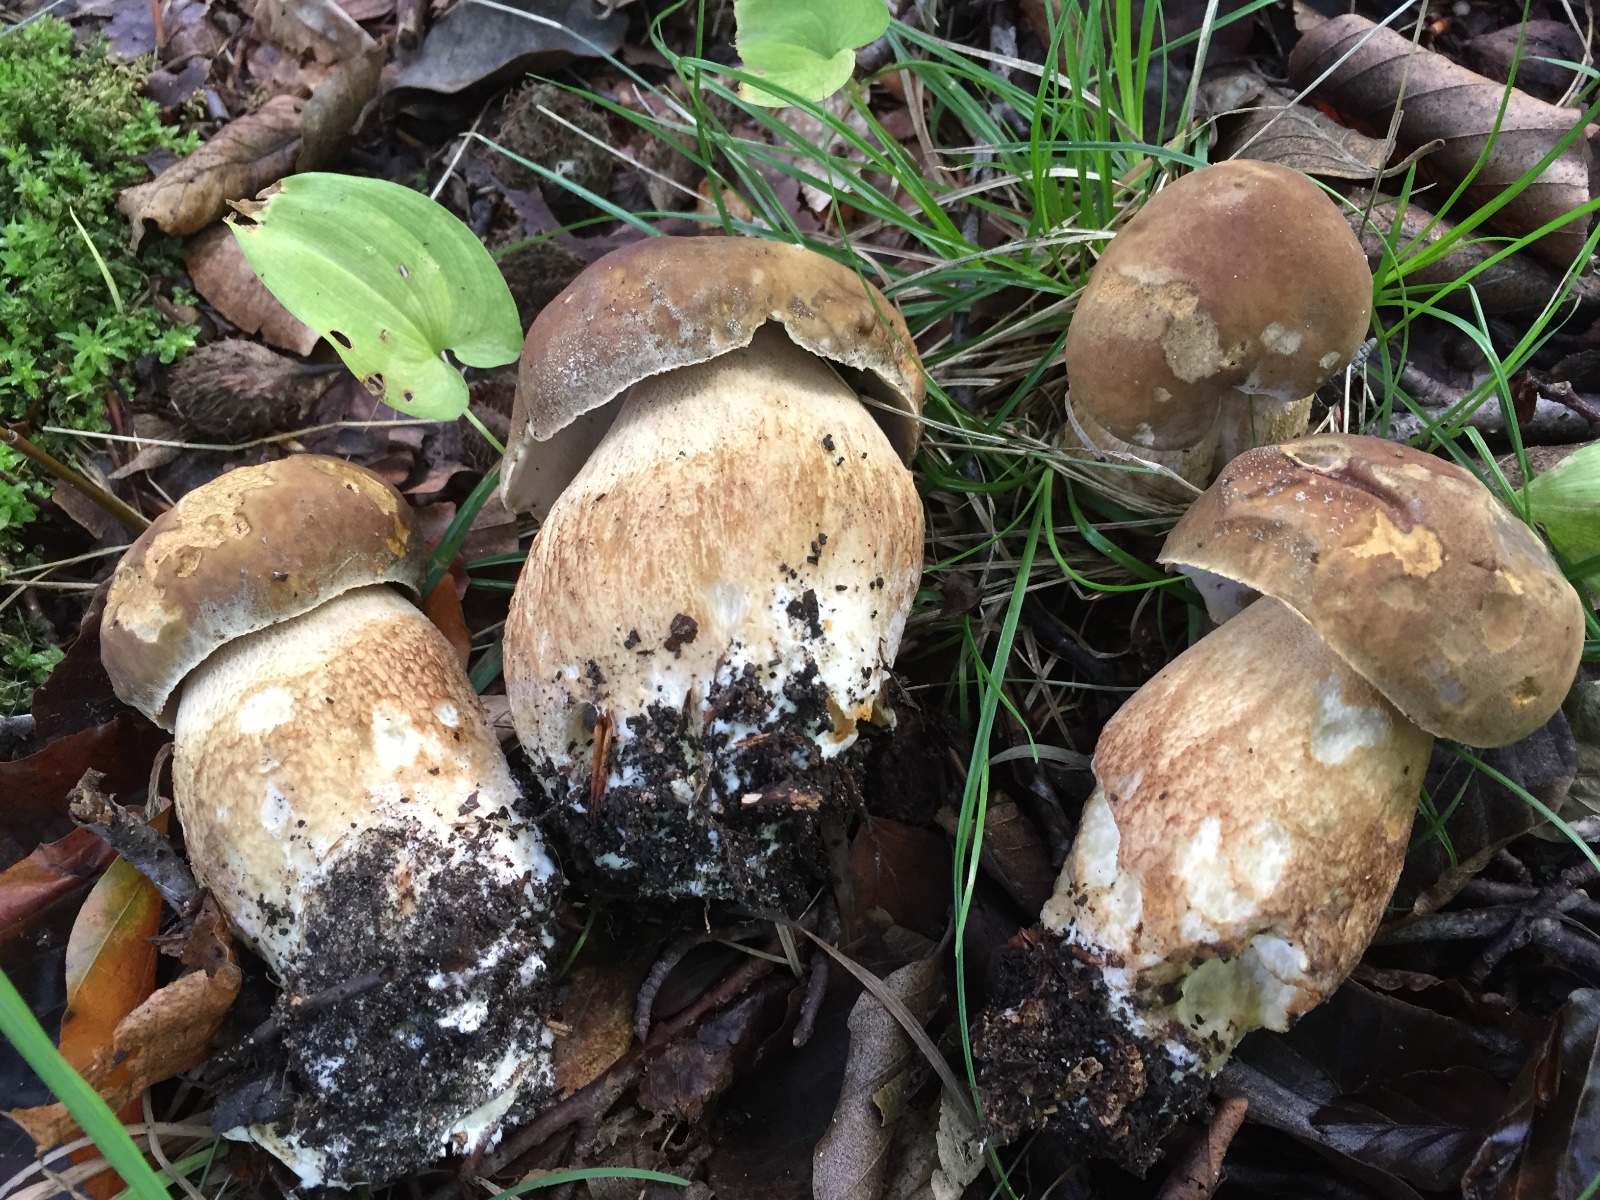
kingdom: Fungi
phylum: Basidiomycota
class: Agaricomycetes
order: Boletales
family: Boletaceae
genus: Boletus
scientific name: Boletus reticulatus
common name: sommer-rørhat
